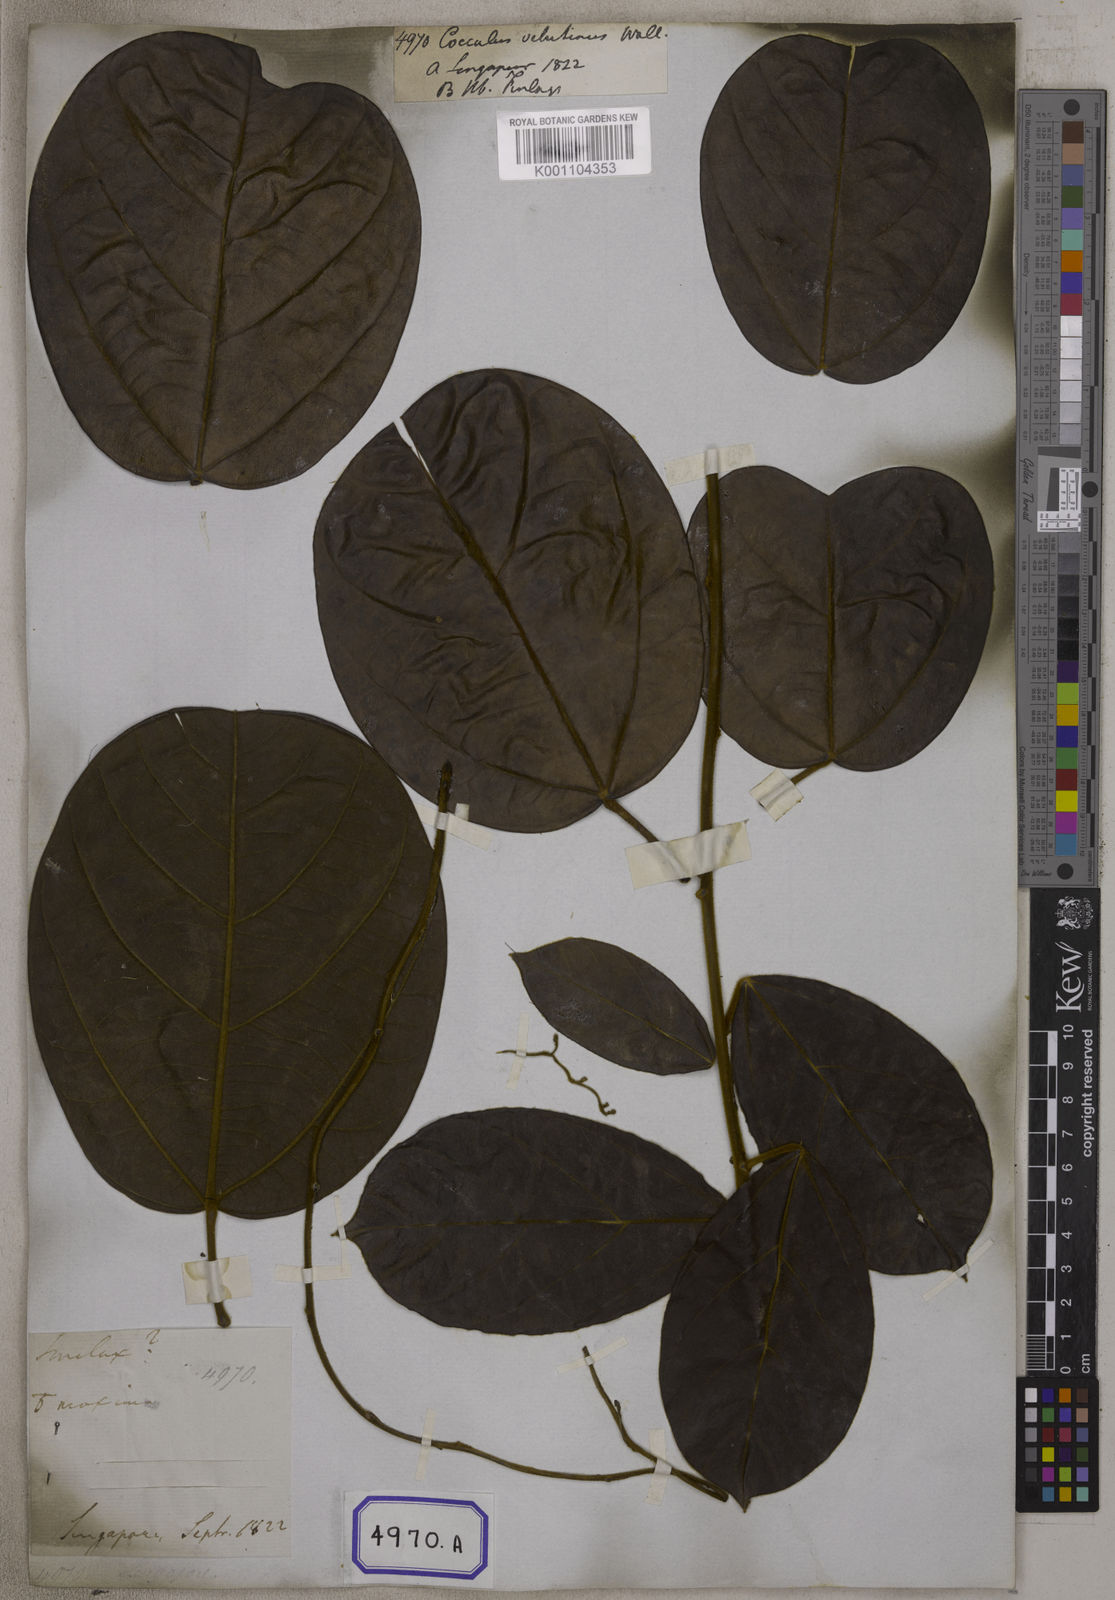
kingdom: Plantae
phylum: Tracheophyta
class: Magnoliopsida
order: Ranunculales
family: Menispermaceae
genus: Limacia
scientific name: Limacia scandens
